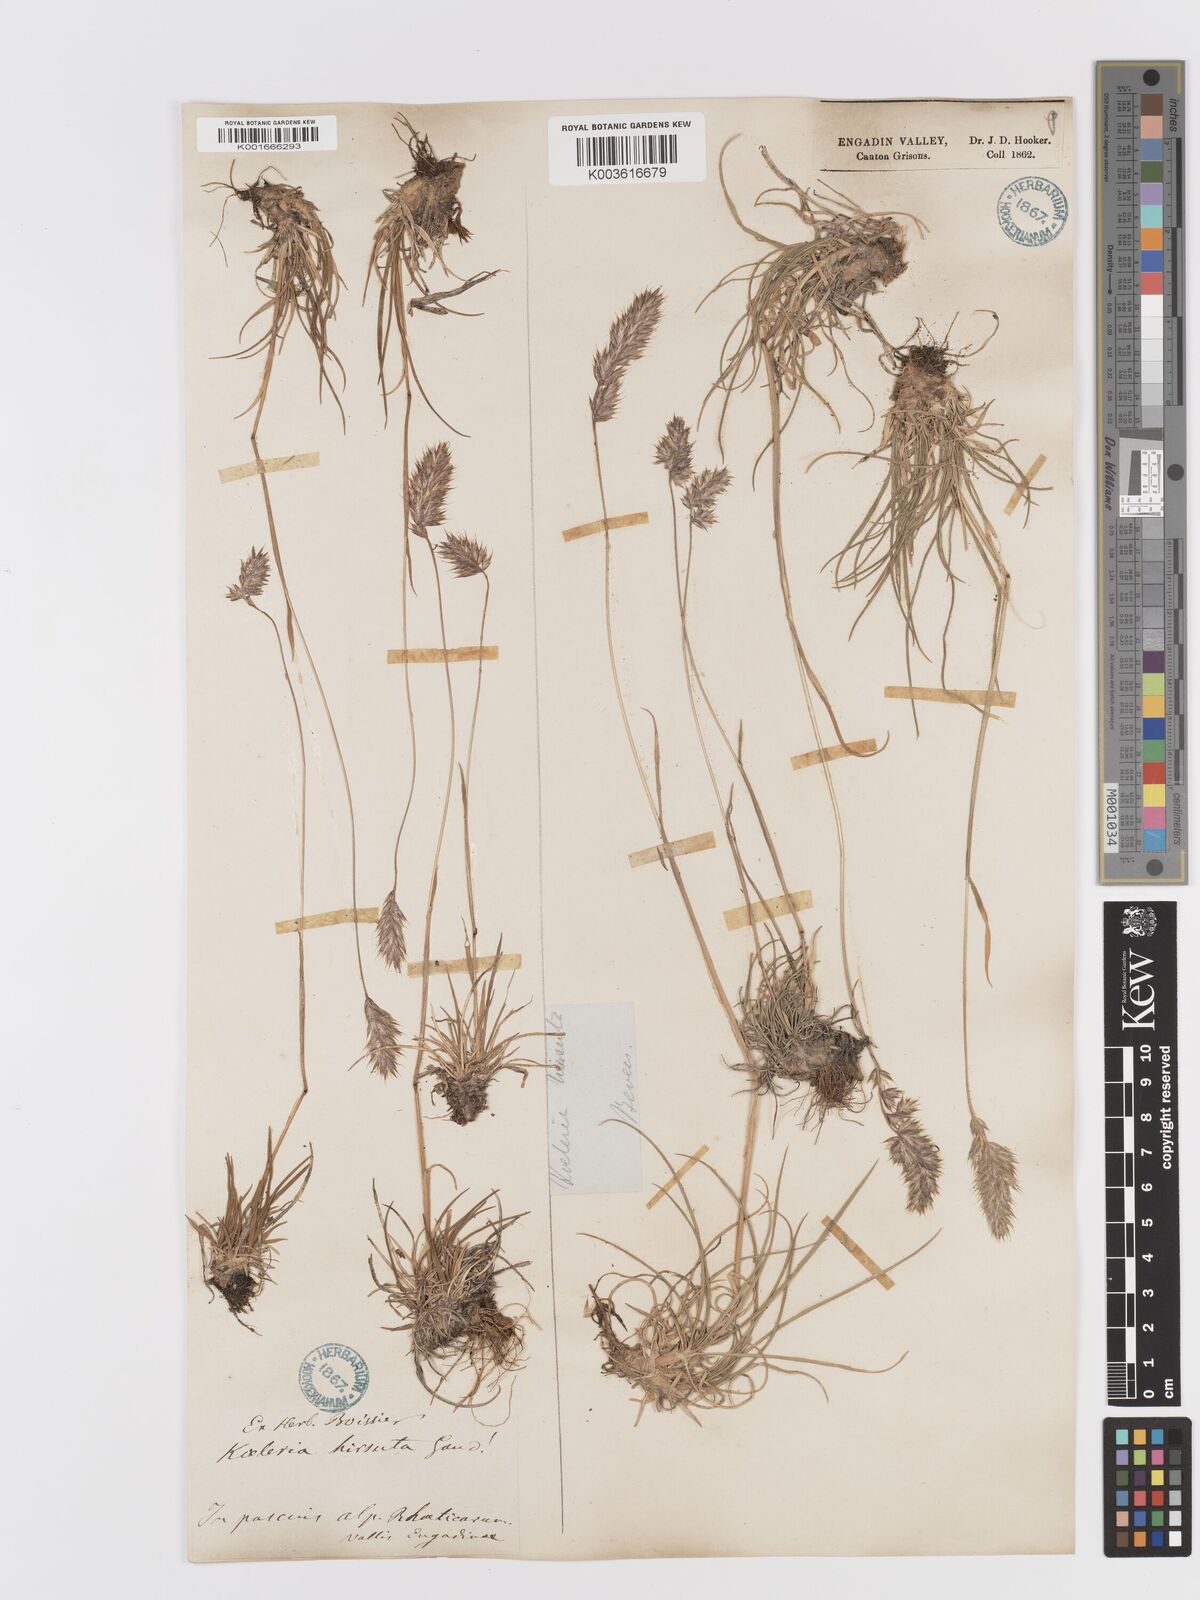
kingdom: Plantae
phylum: Tracheophyta
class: Liliopsida
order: Poales
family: Poaceae
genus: Koeleria
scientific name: Koeleria hirsuta
